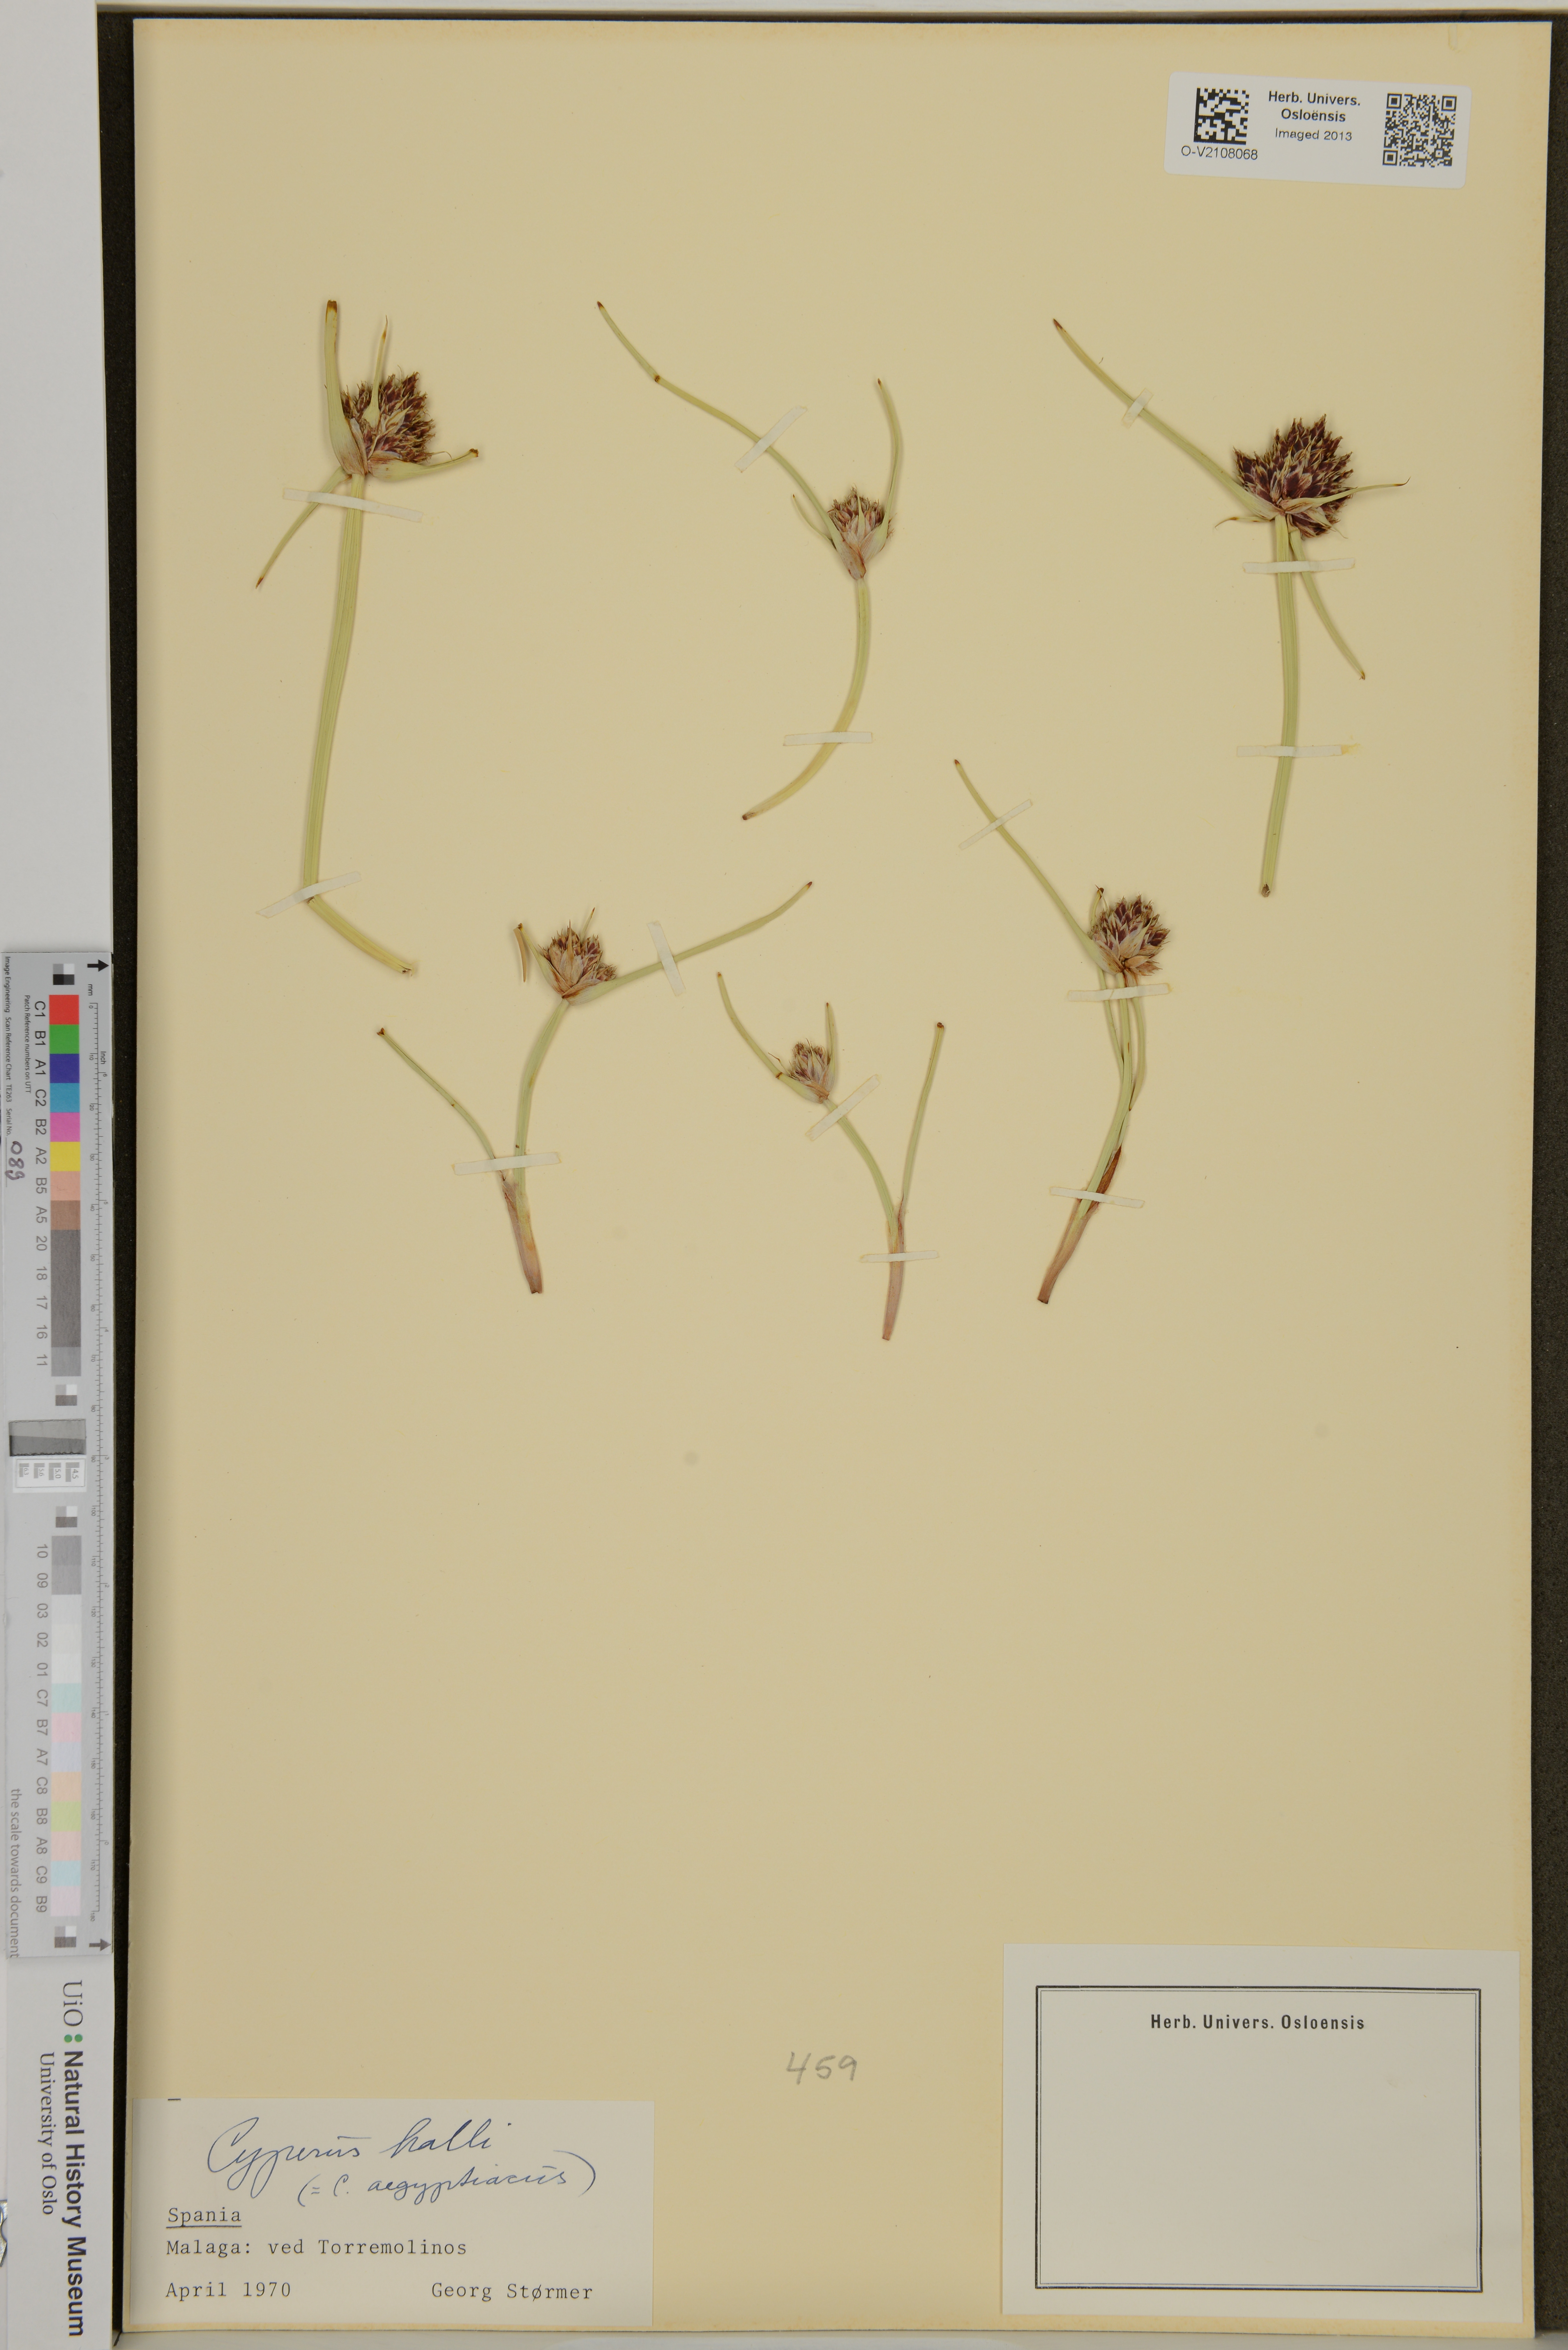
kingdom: Plantae
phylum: Tracheophyta
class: Liliopsida
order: Poales
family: Cyperaceae
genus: Cyperus
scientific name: Cyperus
